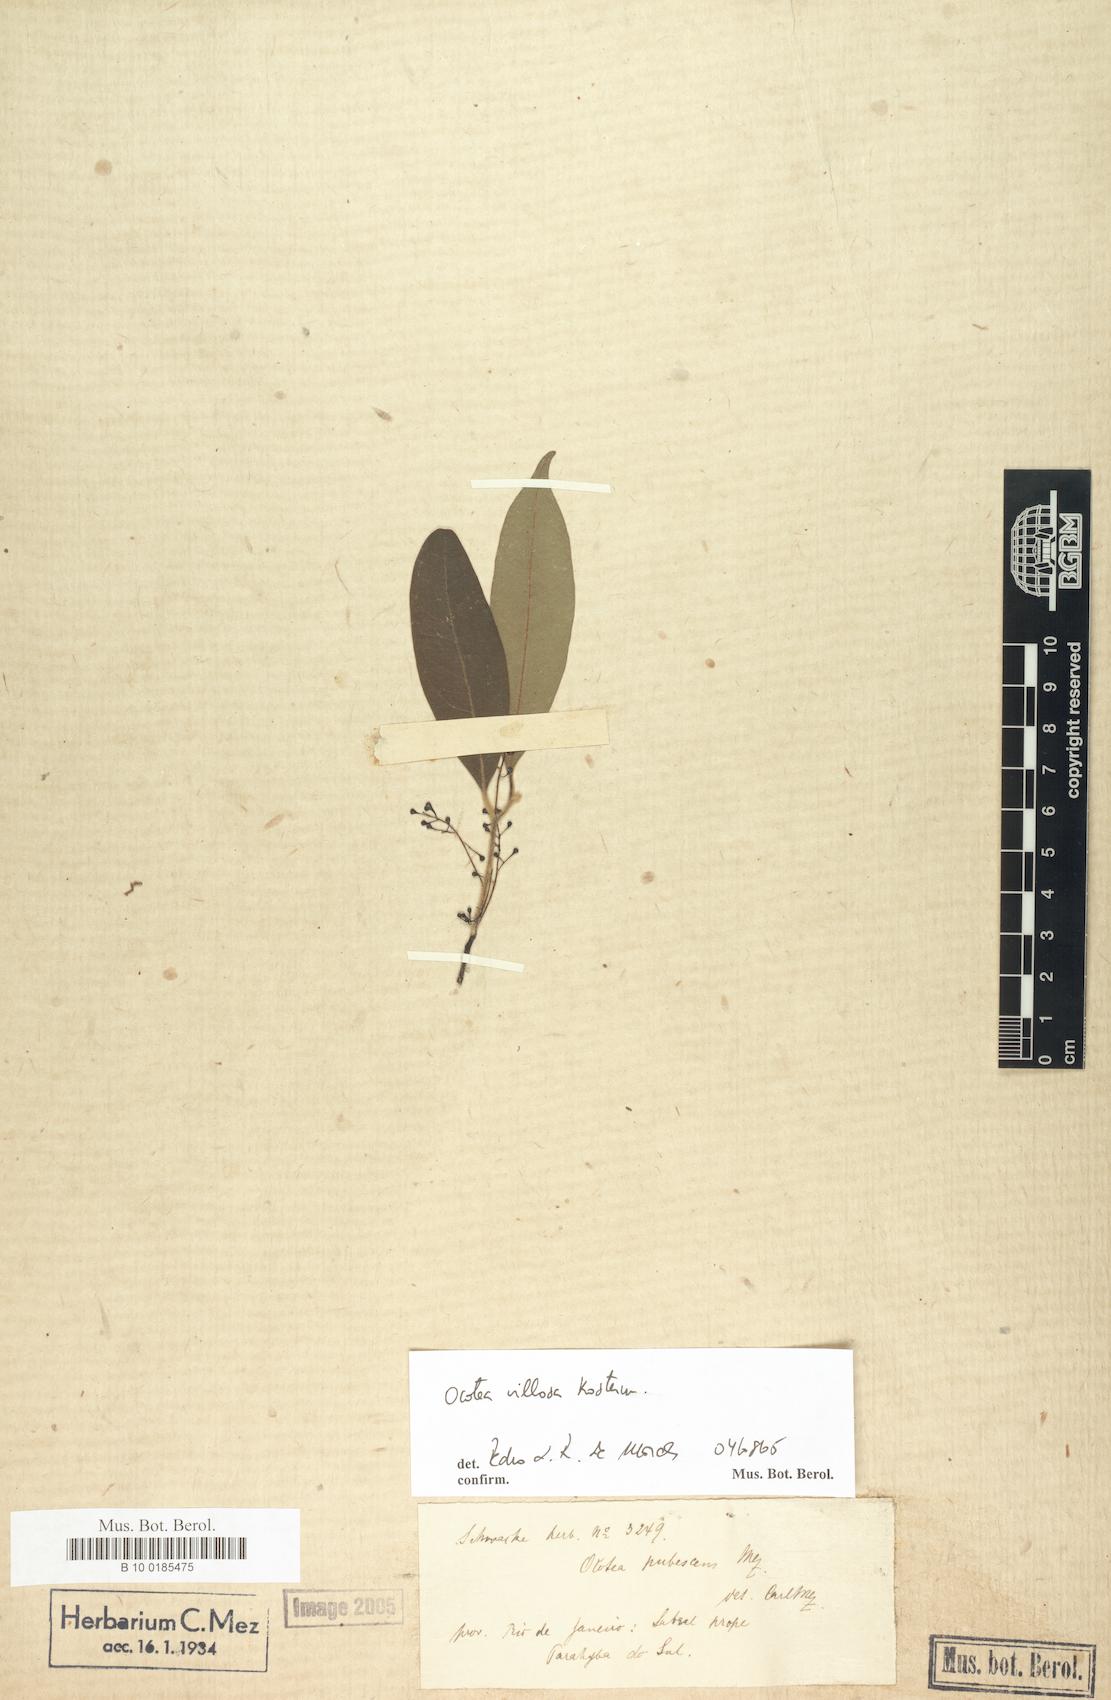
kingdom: Plantae
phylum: Tracheophyta
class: Magnoliopsida
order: Laurales
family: Lauraceae
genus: Ocotea
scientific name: Ocotea villosa
